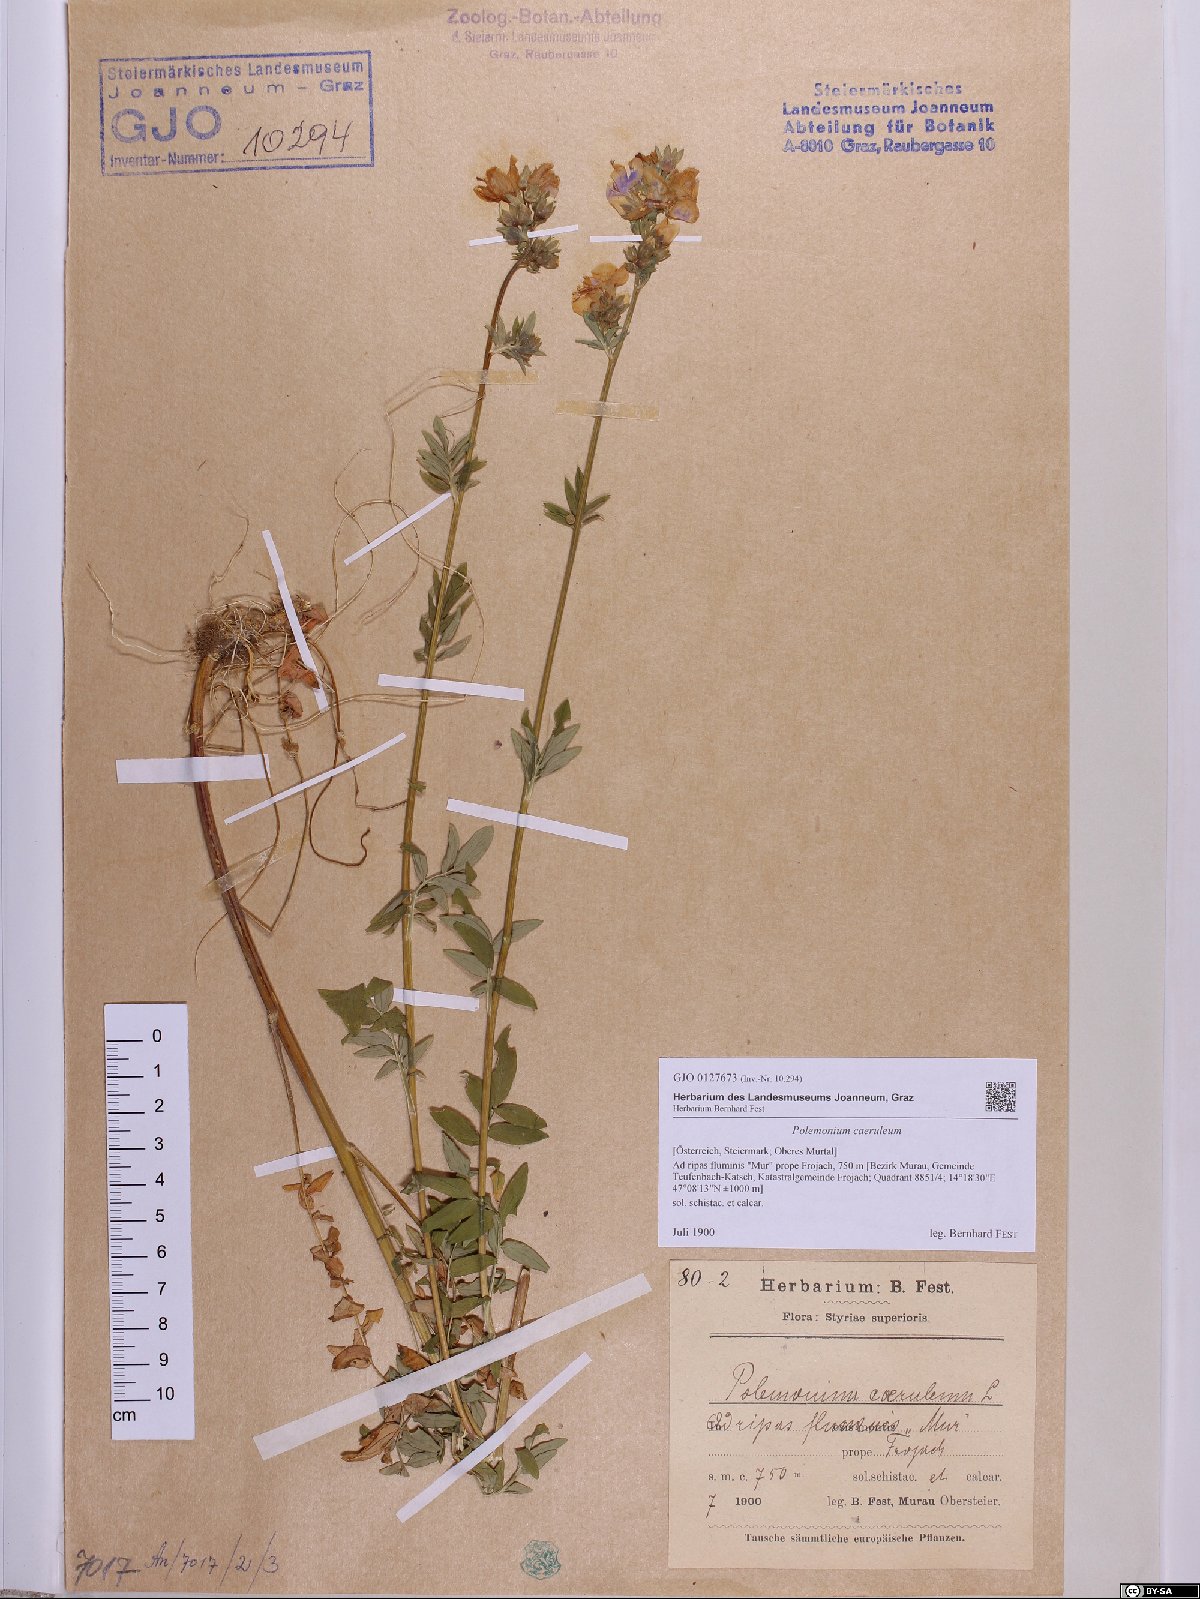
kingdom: Plantae
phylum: Tracheophyta
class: Magnoliopsida
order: Ericales
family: Polemoniaceae
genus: Polemonium
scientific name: Polemonium caeruleum
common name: Jacob's-ladder
